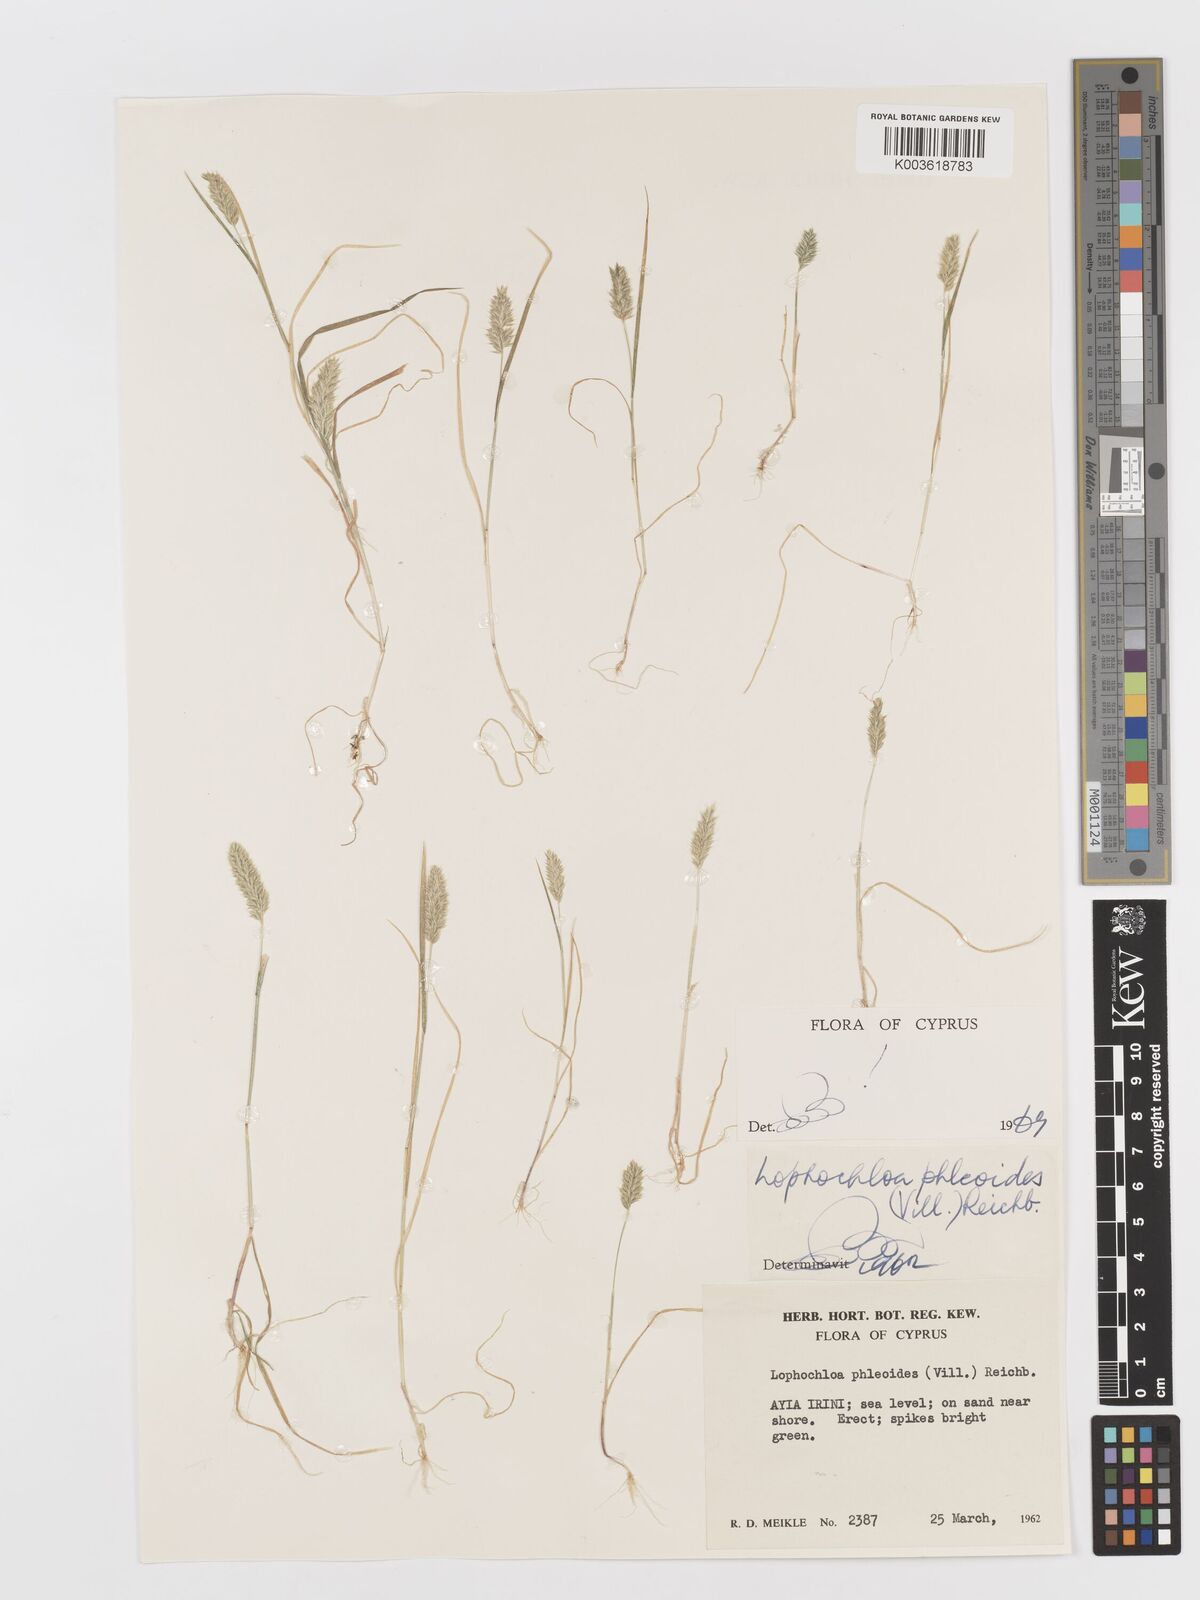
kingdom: Plantae
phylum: Tracheophyta
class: Liliopsida
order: Poales
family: Poaceae
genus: Rostraria
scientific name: Rostraria cristata
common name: Mediterranean hair-grass
